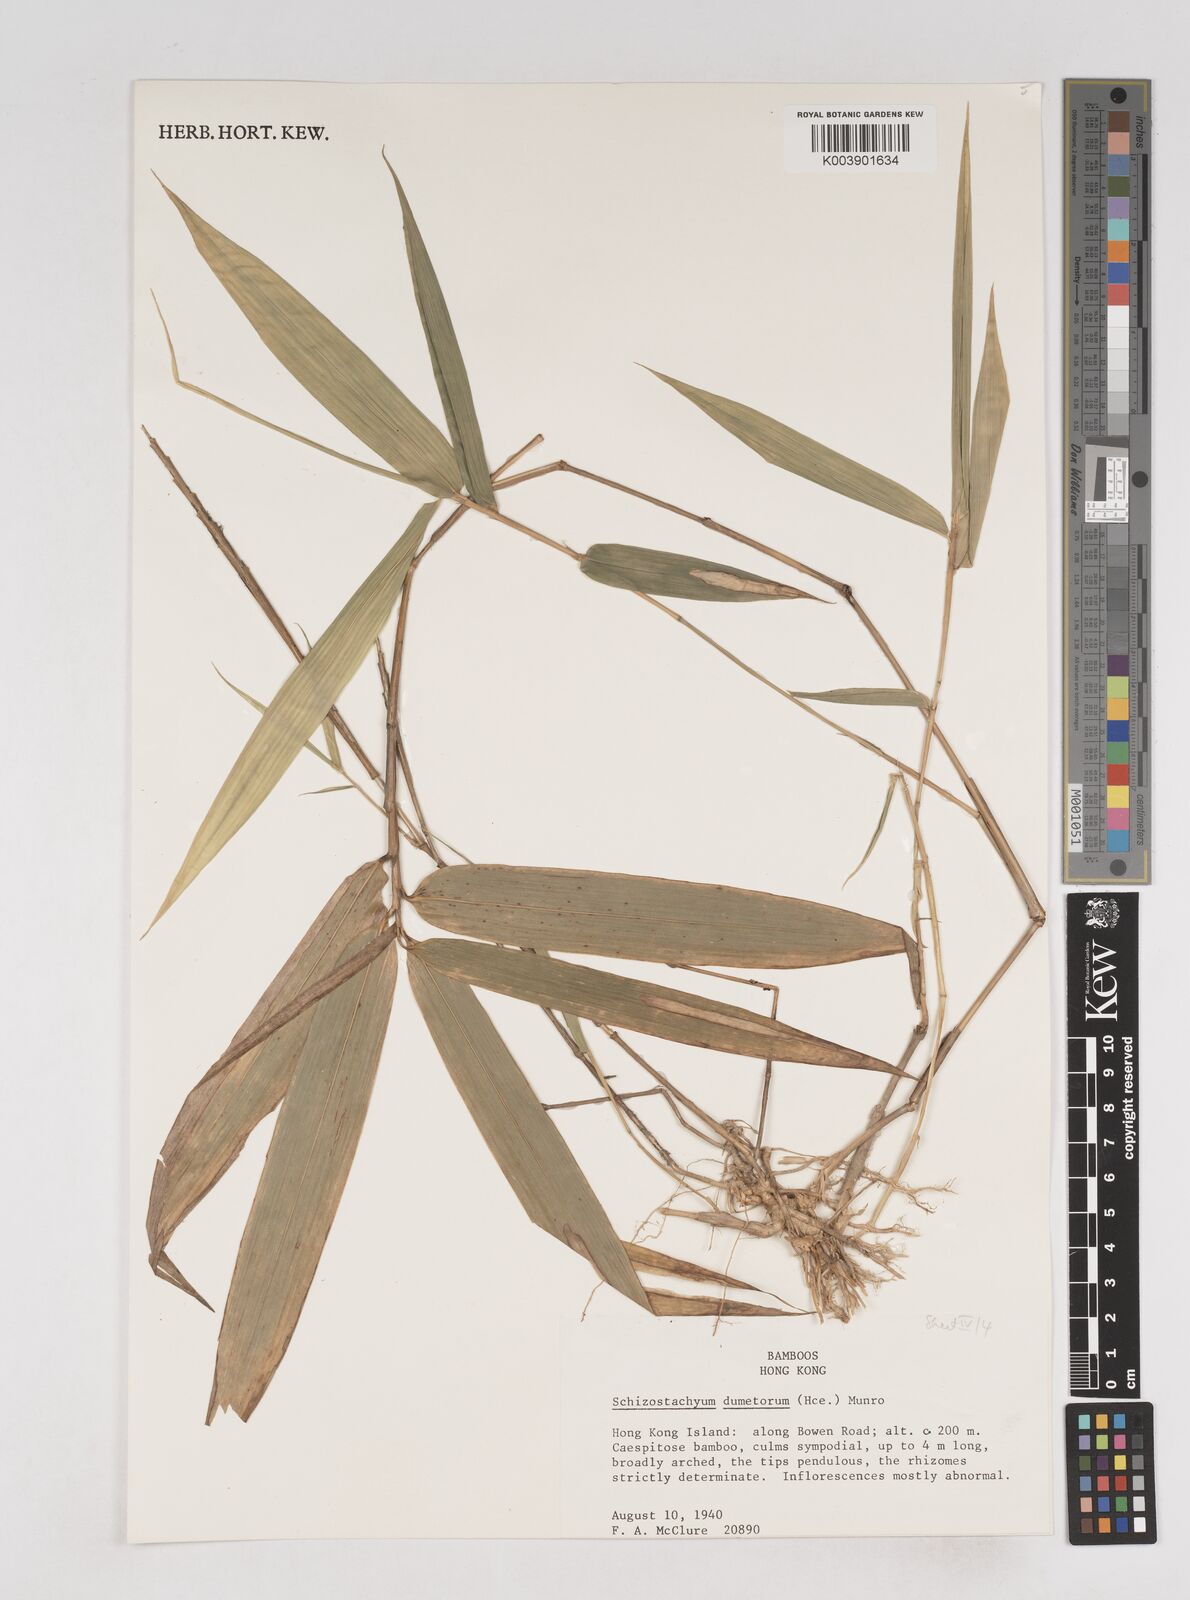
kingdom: Plantae
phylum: Tracheophyta
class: Liliopsida
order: Poales
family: Poaceae
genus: Schizostachyum
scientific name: Schizostachyum dumetorum
